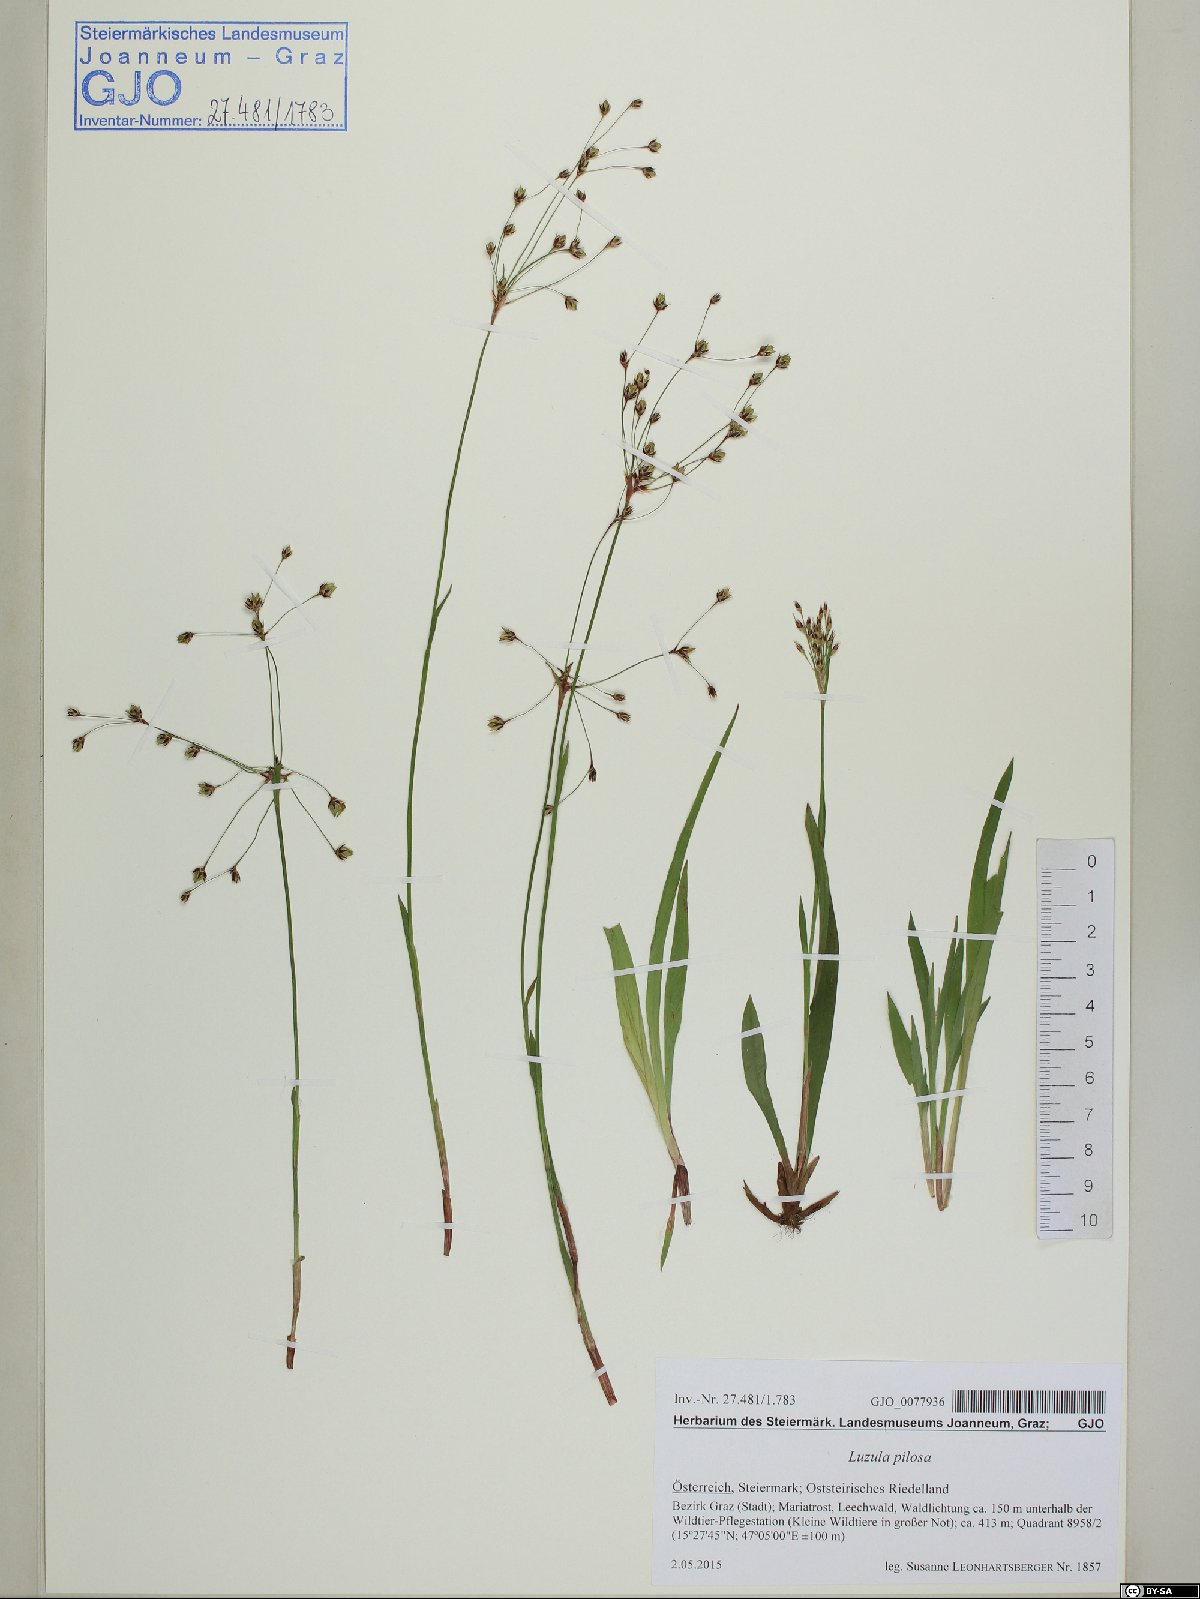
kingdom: Plantae
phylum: Tracheophyta
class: Liliopsida
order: Poales
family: Juncaceae
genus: Luzula
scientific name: Luzula pilosa
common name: Hairy wood-rush
